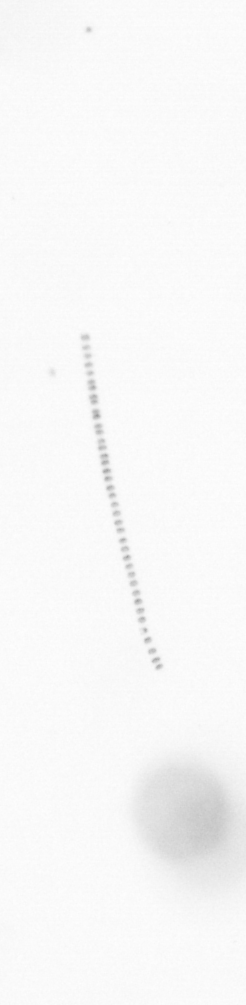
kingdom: Chromista
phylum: Ochrophyta
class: Bacillariophyceae
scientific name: Bacillariophyceae
